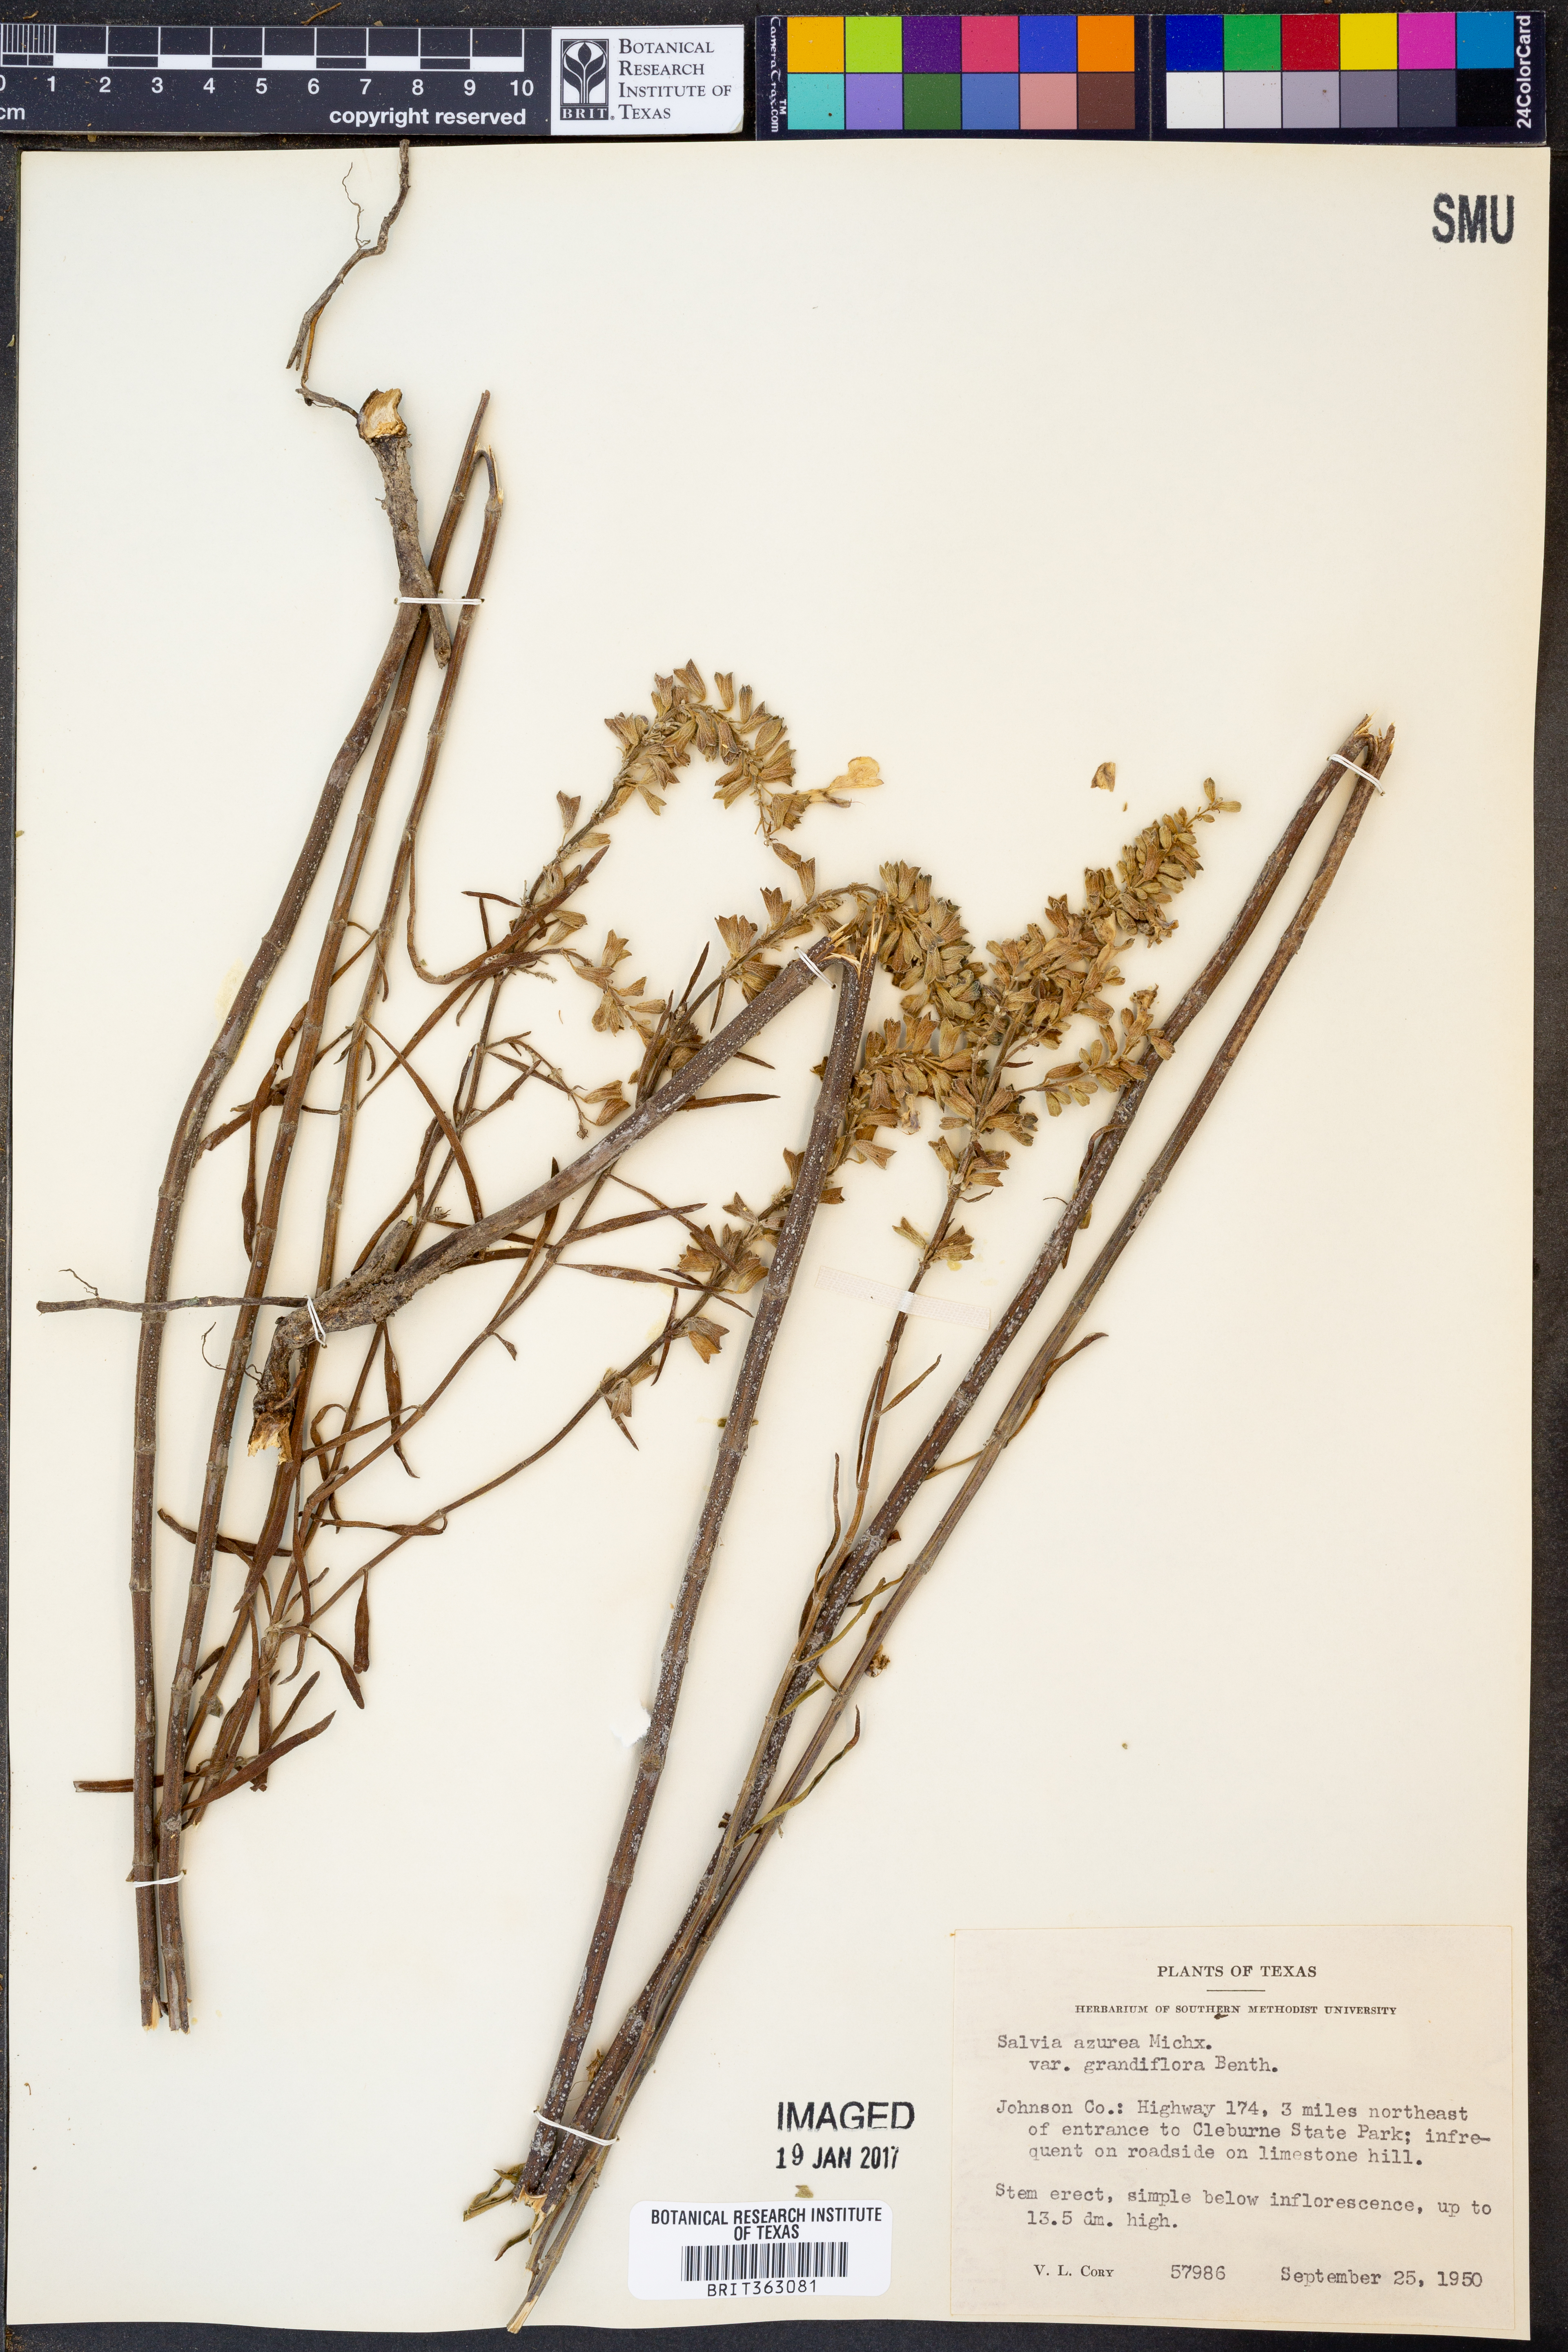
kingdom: Plantae
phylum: Tracheophyta
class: Magnoliopsida
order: Lamiales
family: Lamiaceae
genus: Salvia
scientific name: Salvia azurea
